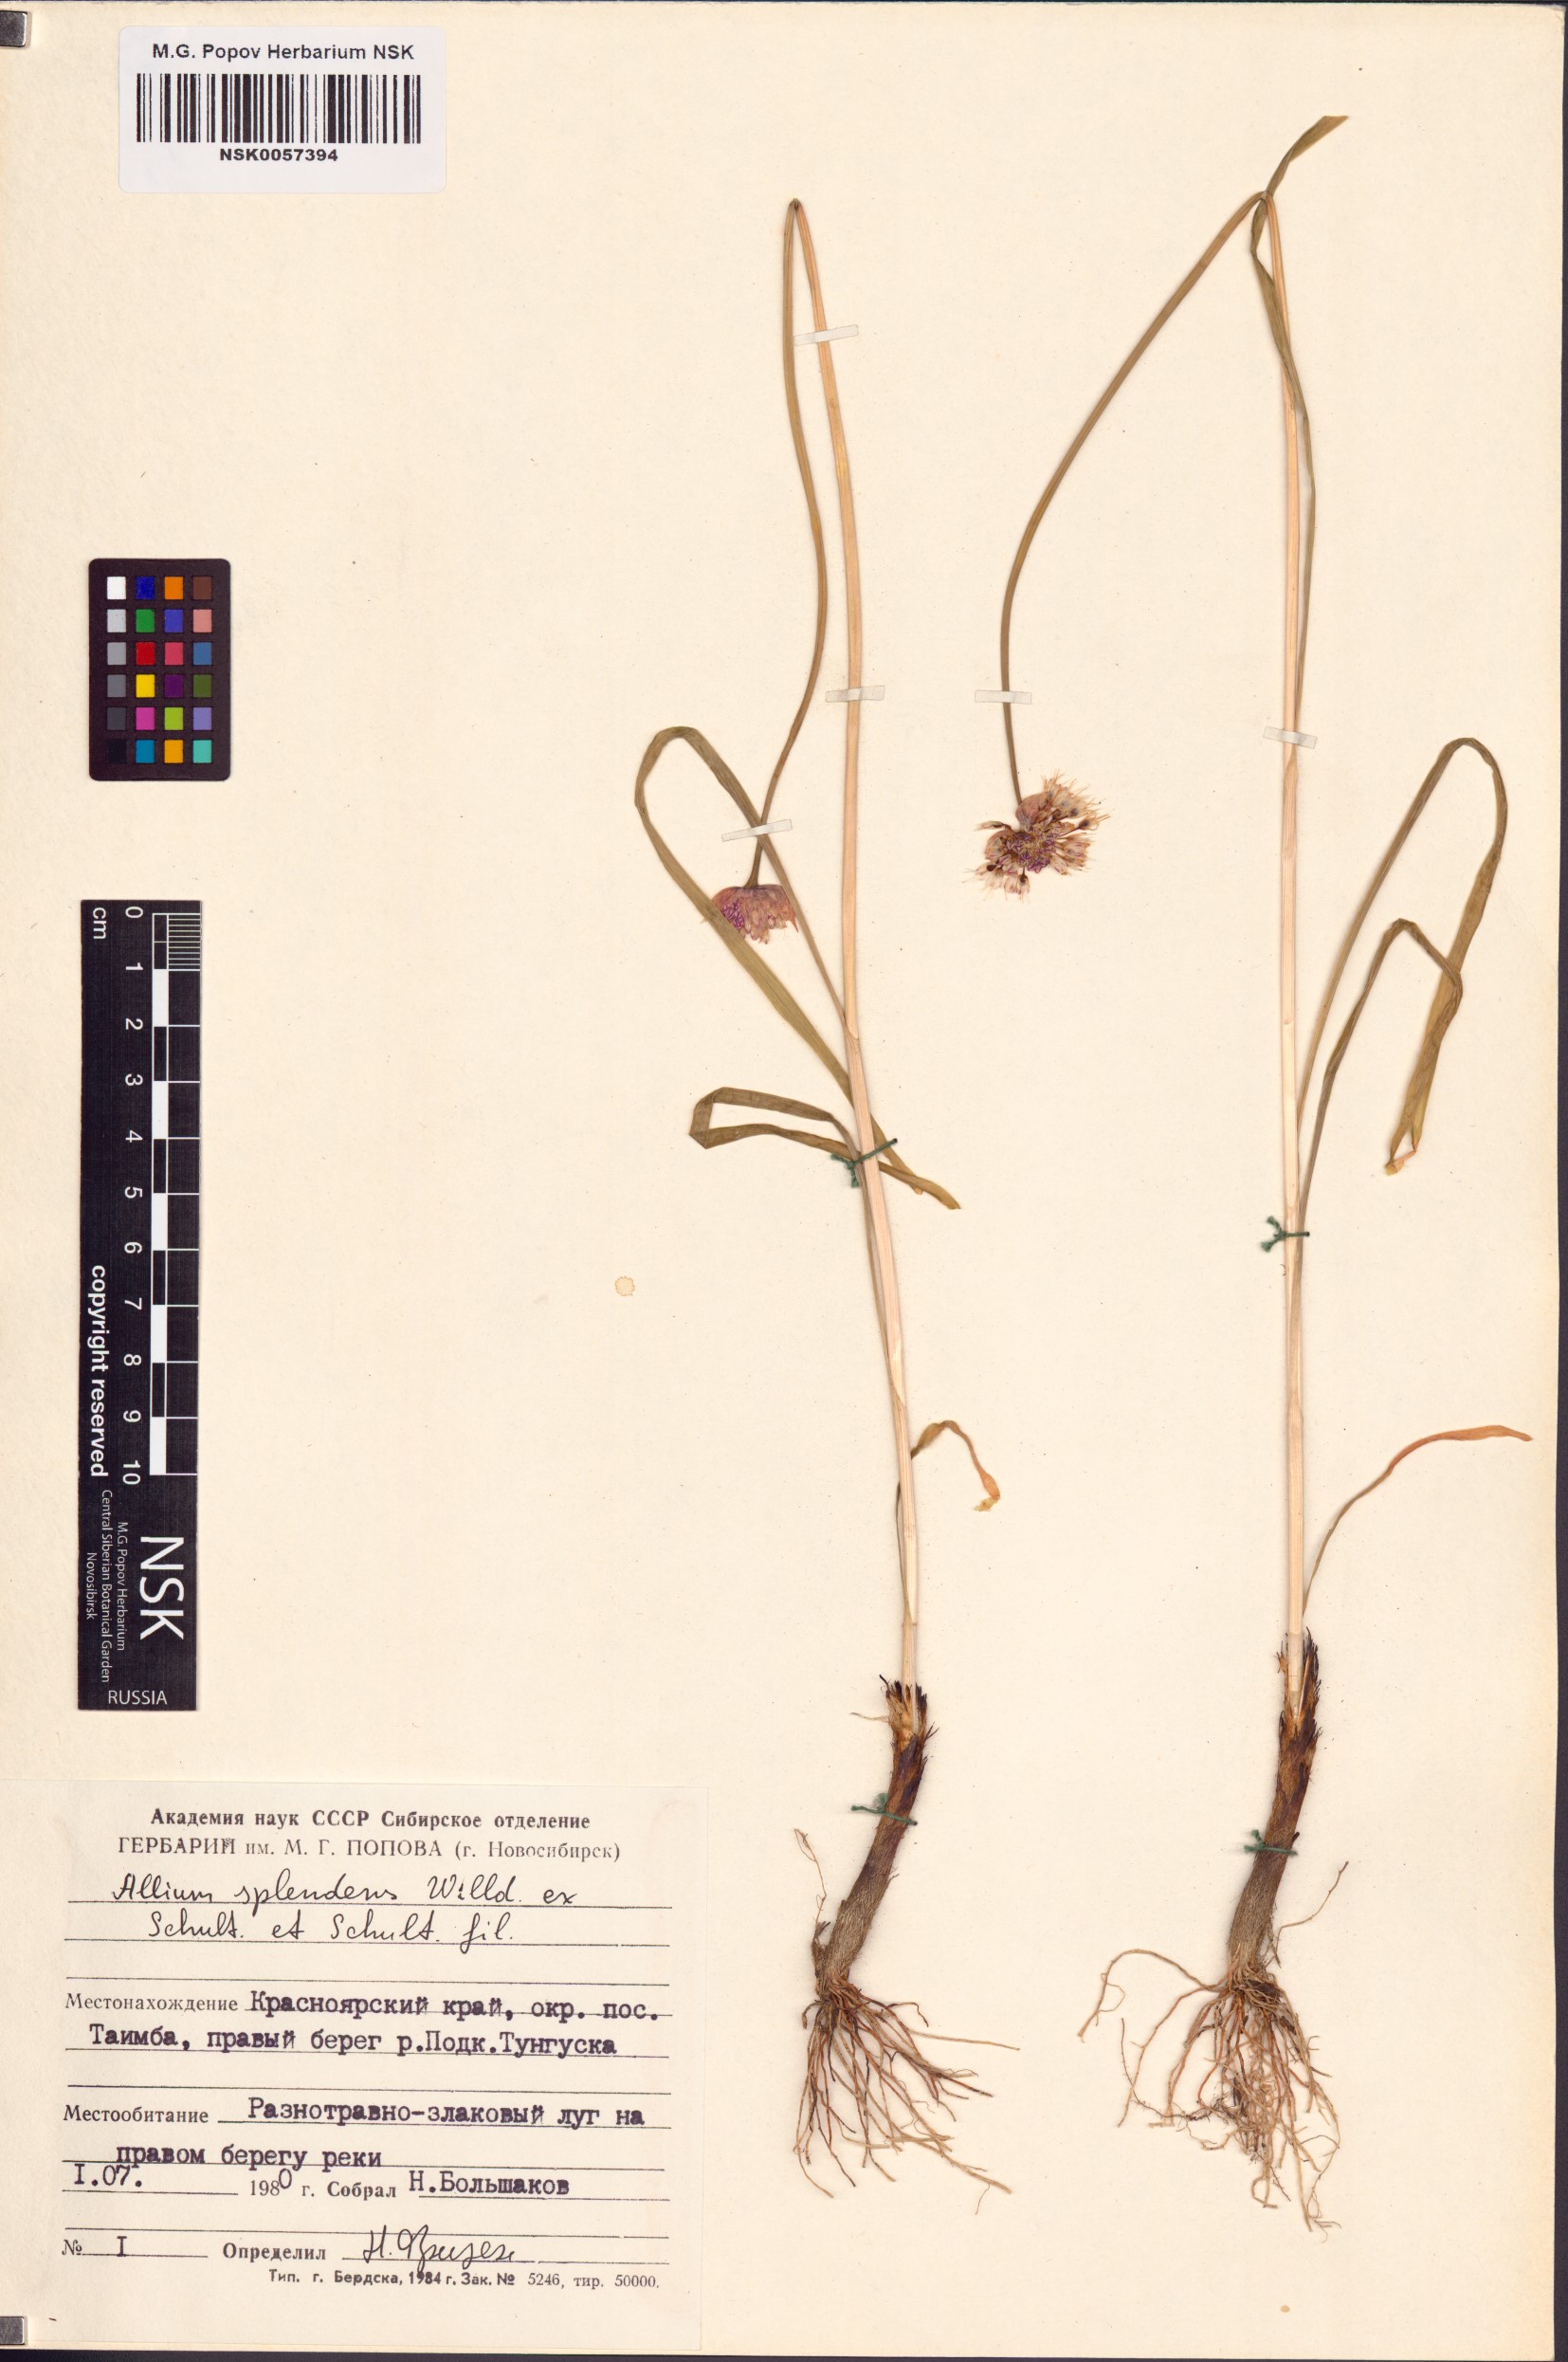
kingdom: Plantae
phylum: Tracheophyta
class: Liliopsida
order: Asparagales
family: Amaryllidaceae
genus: Allium
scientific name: Allium splendens
